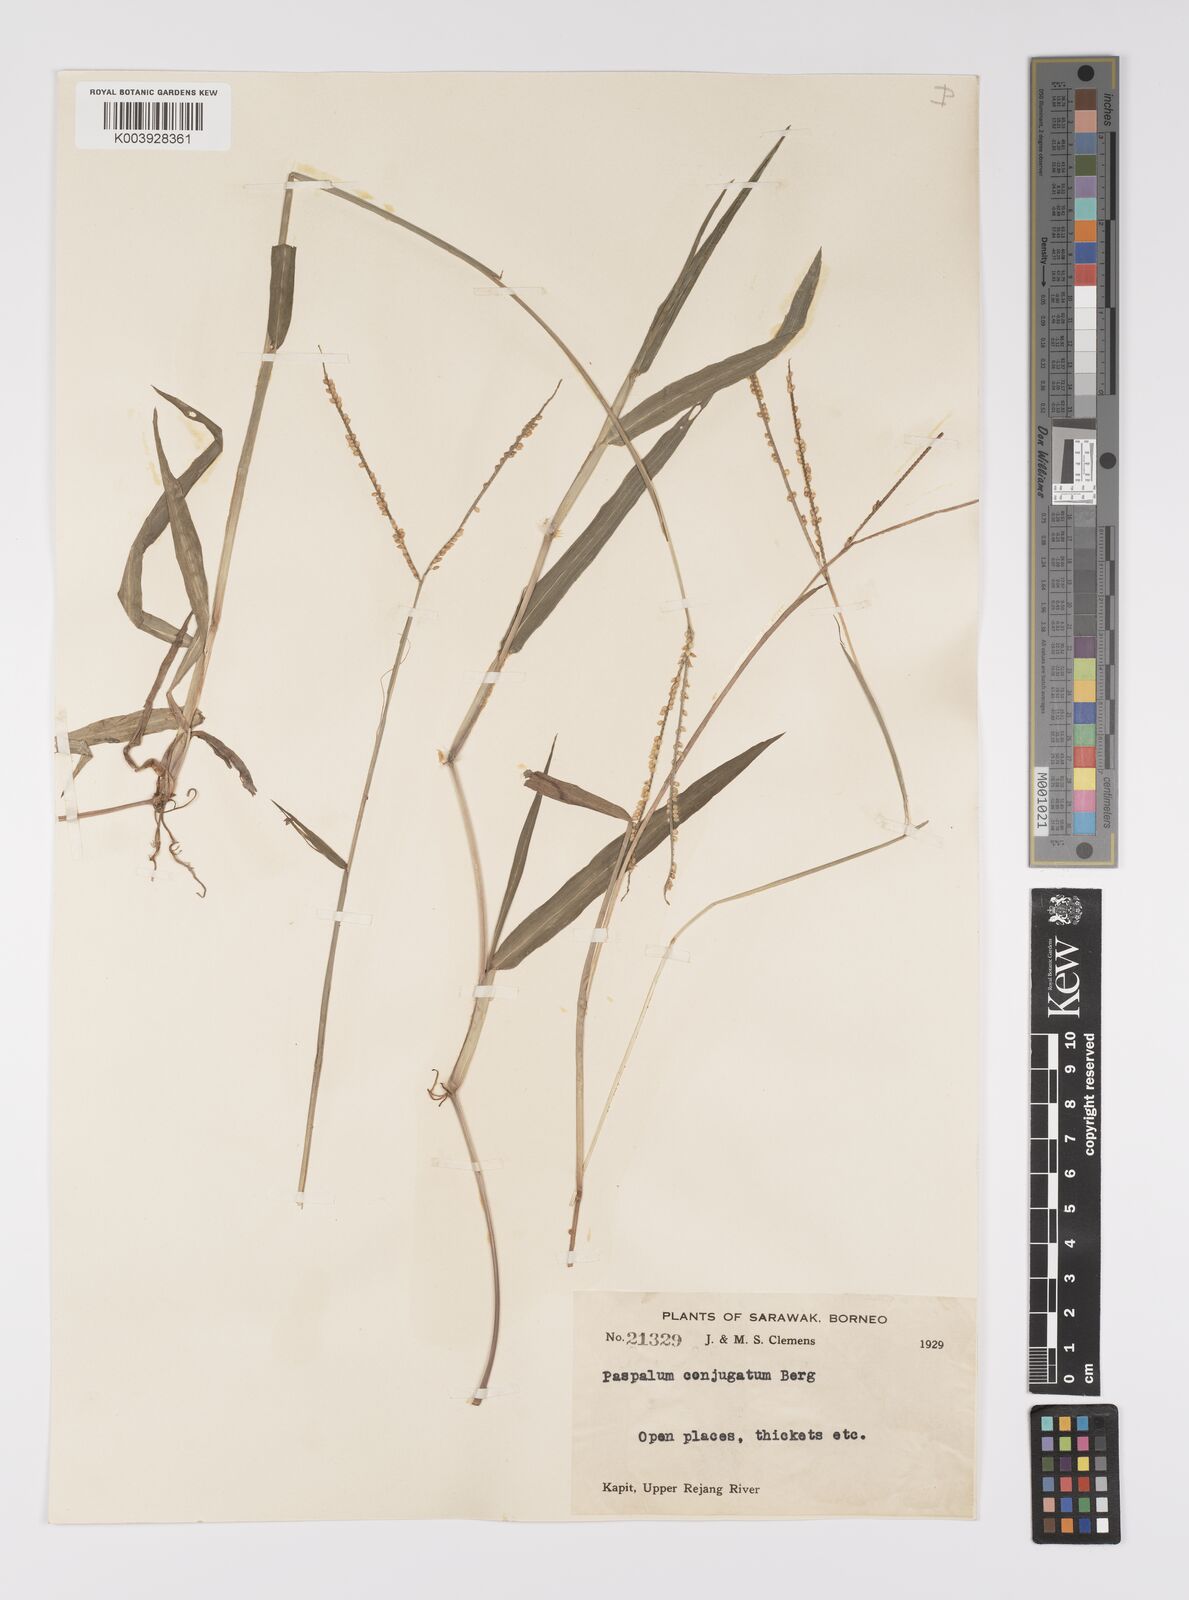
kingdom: Plantae
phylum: Tracheophyta
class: Liliopsida
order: Poales
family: Poaceae
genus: Paspalum
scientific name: Paspalum conjugatum
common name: Hilograss
